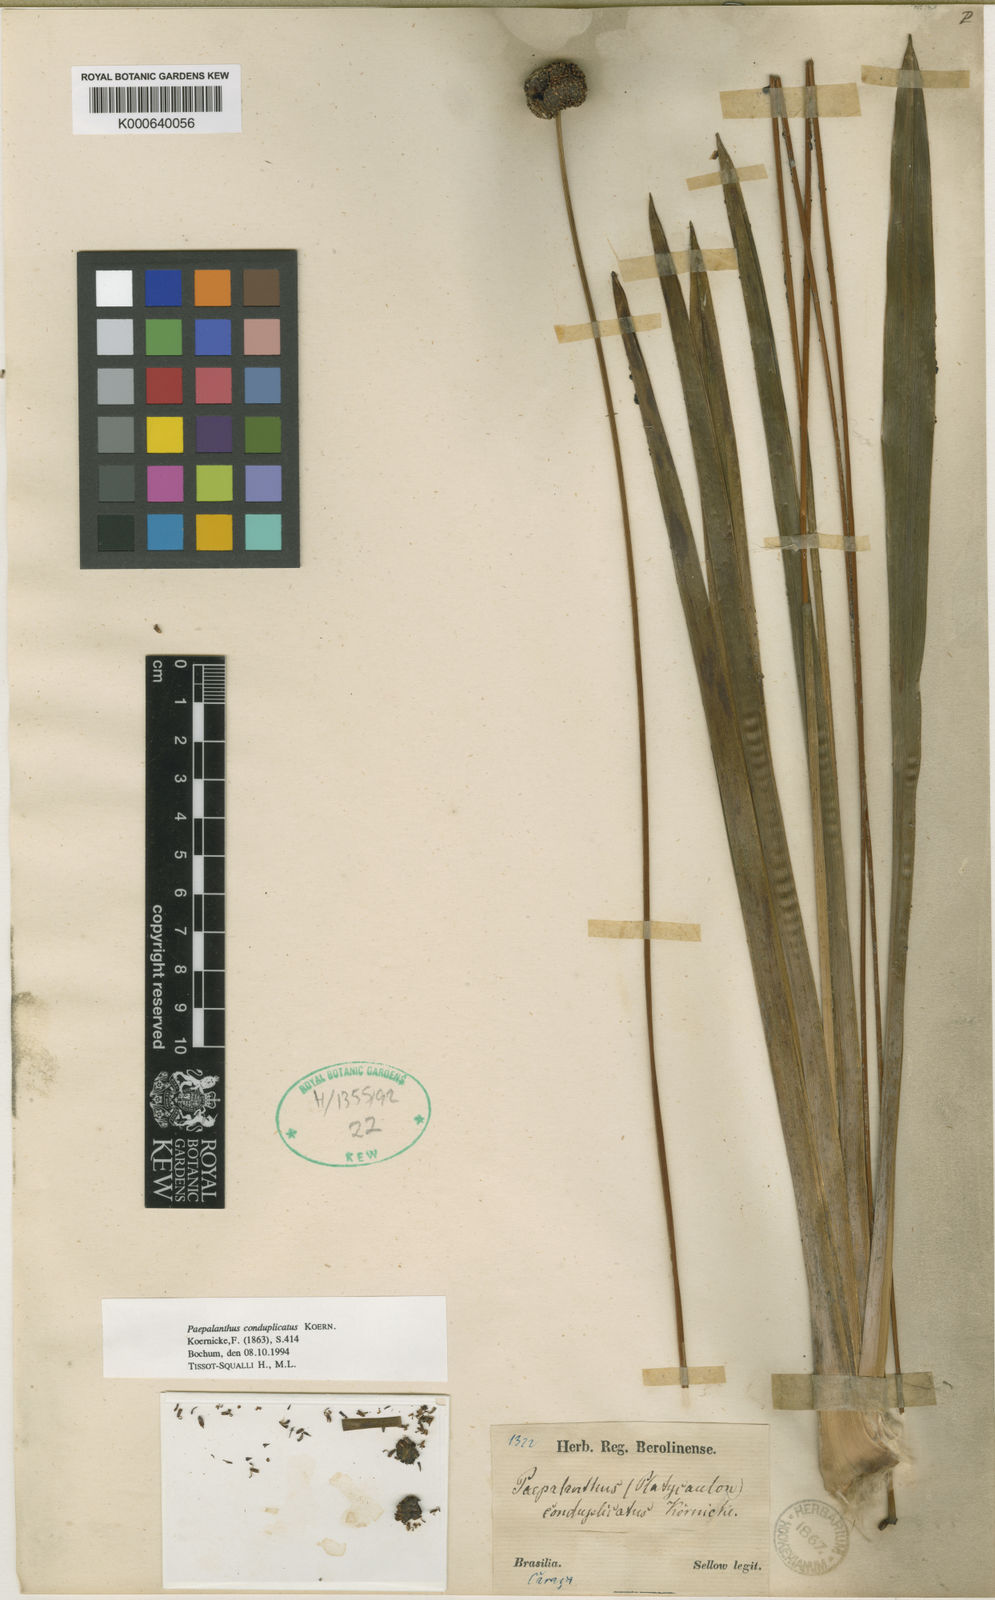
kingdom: Plantae
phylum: Tracheophyta
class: Liliopsida
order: Poales
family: Eriocaulaceae
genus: Paepalanthus
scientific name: Paepalanthus
